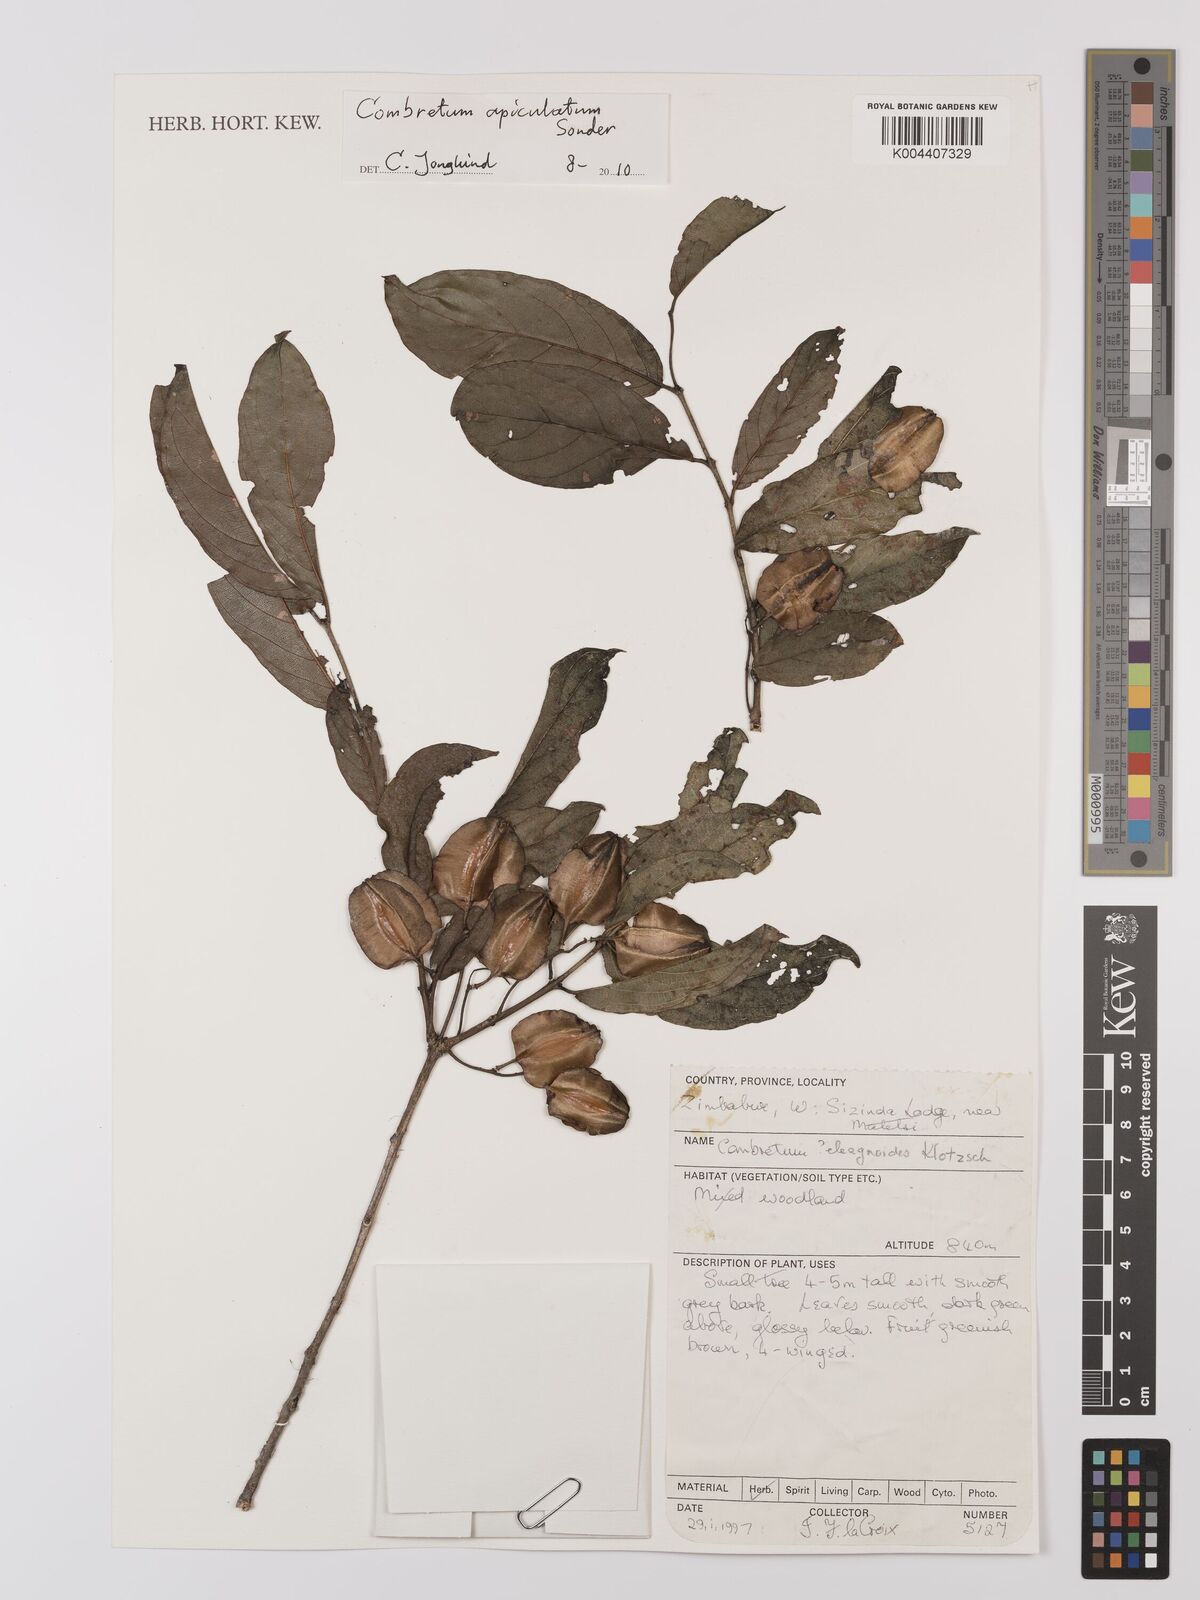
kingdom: Plantae
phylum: Tracheophyta
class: Magnoliopsida
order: Myrtales
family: Combretaceae
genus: Combretum
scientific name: Combretum apiculatum
